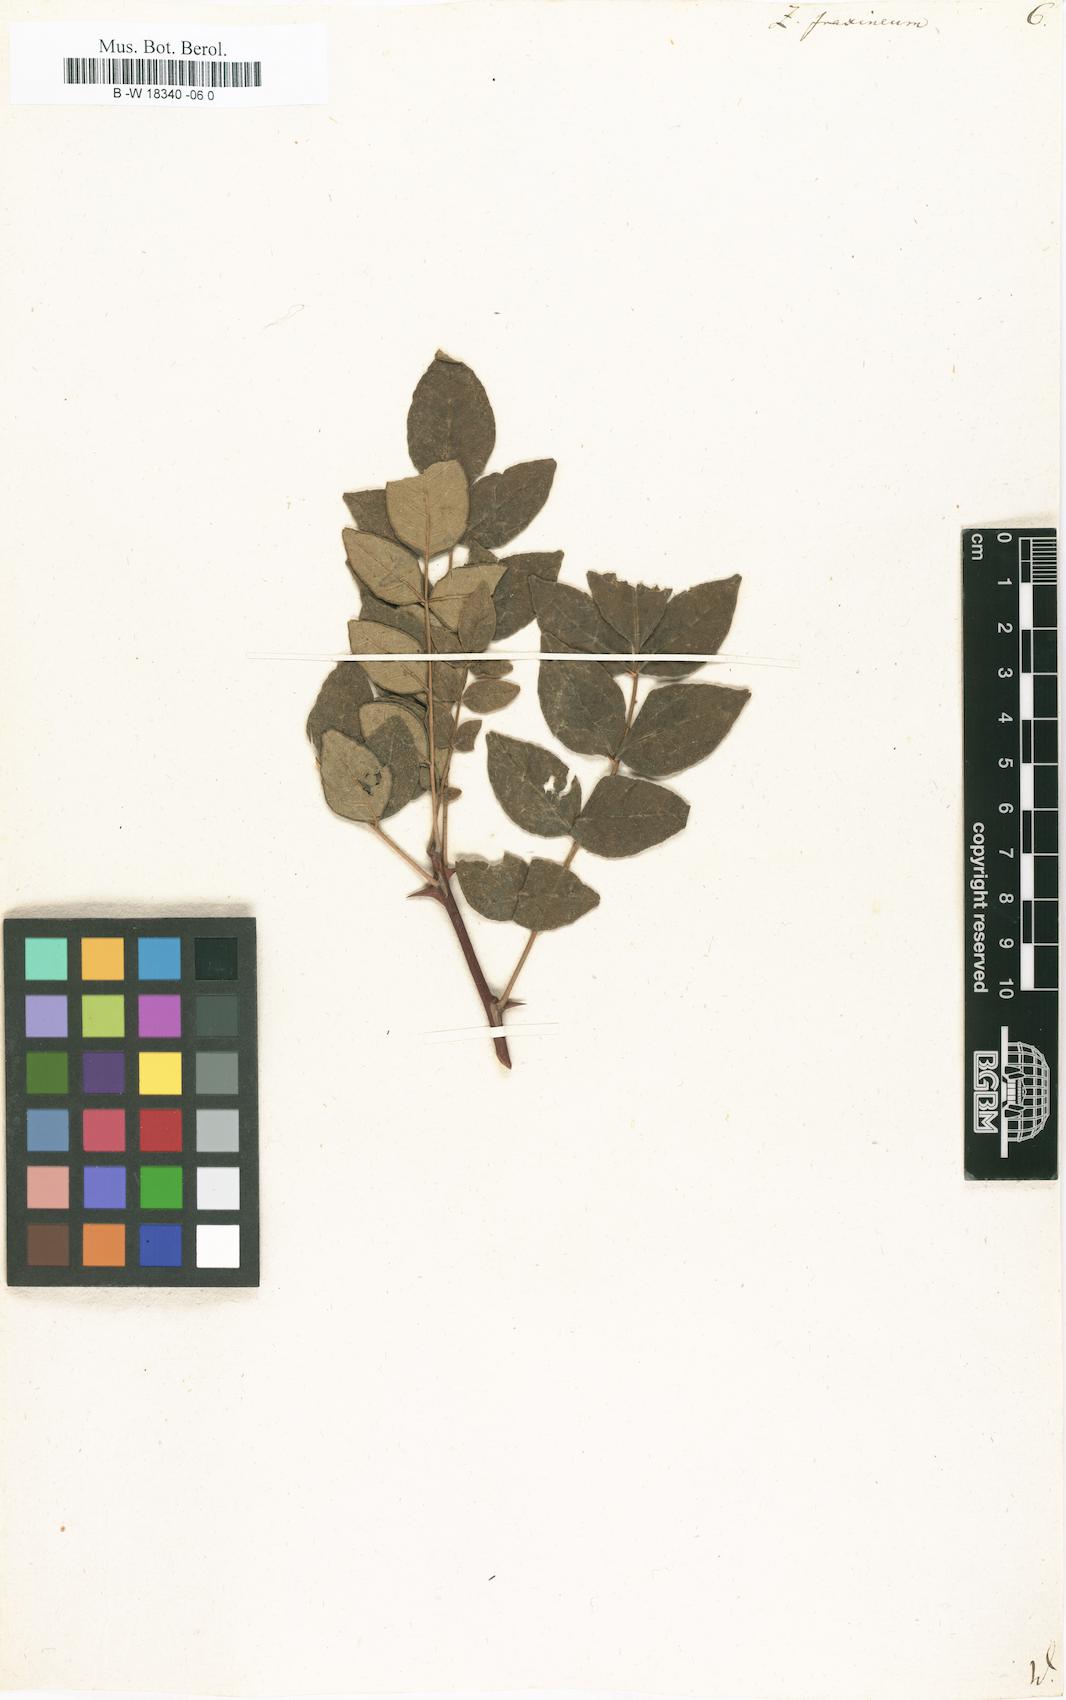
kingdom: Plantae
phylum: Tracheophyta
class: Magnoliopsida
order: Sapindales
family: Rutaceae
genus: Zanthoxylum
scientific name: Zanthoxylum americanum
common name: Northern prickly-ash
